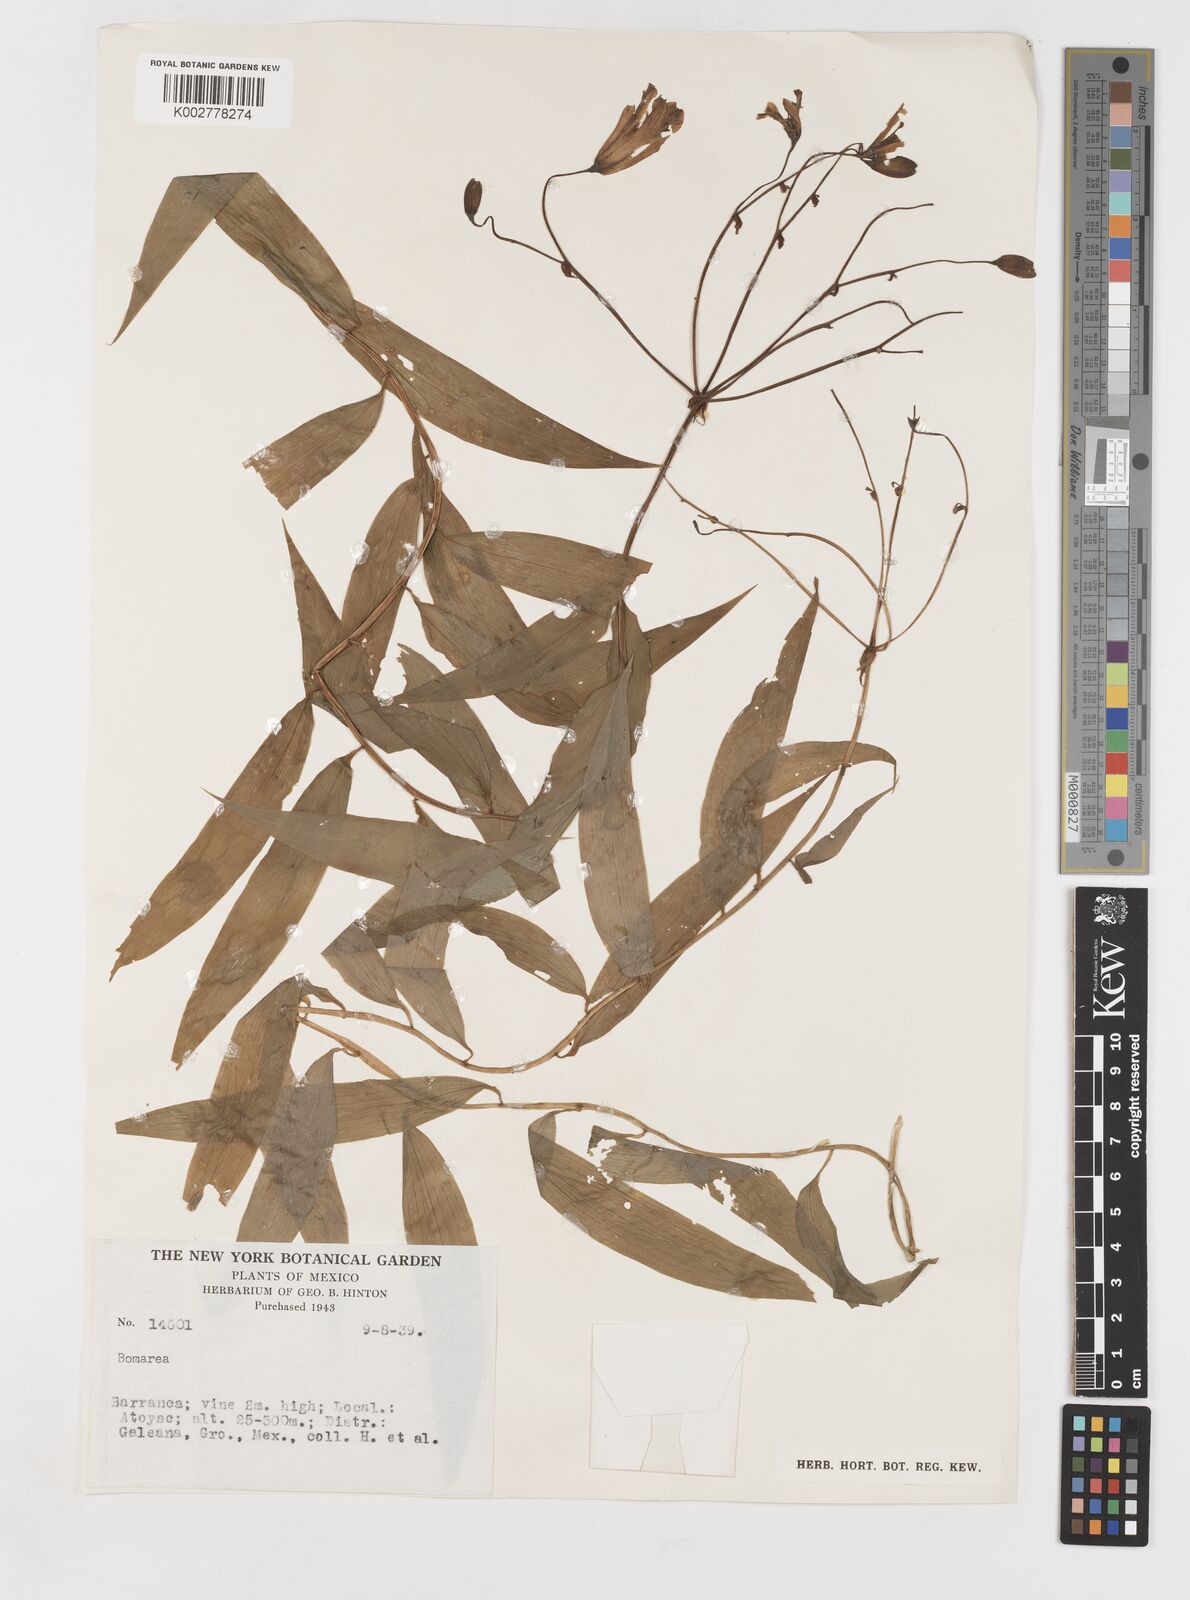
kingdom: Plantae
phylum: Tracheophyta
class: Liliopsida
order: Liliales
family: Alstroemeriaceae
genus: Bomarea
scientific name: Bomarea edulis
